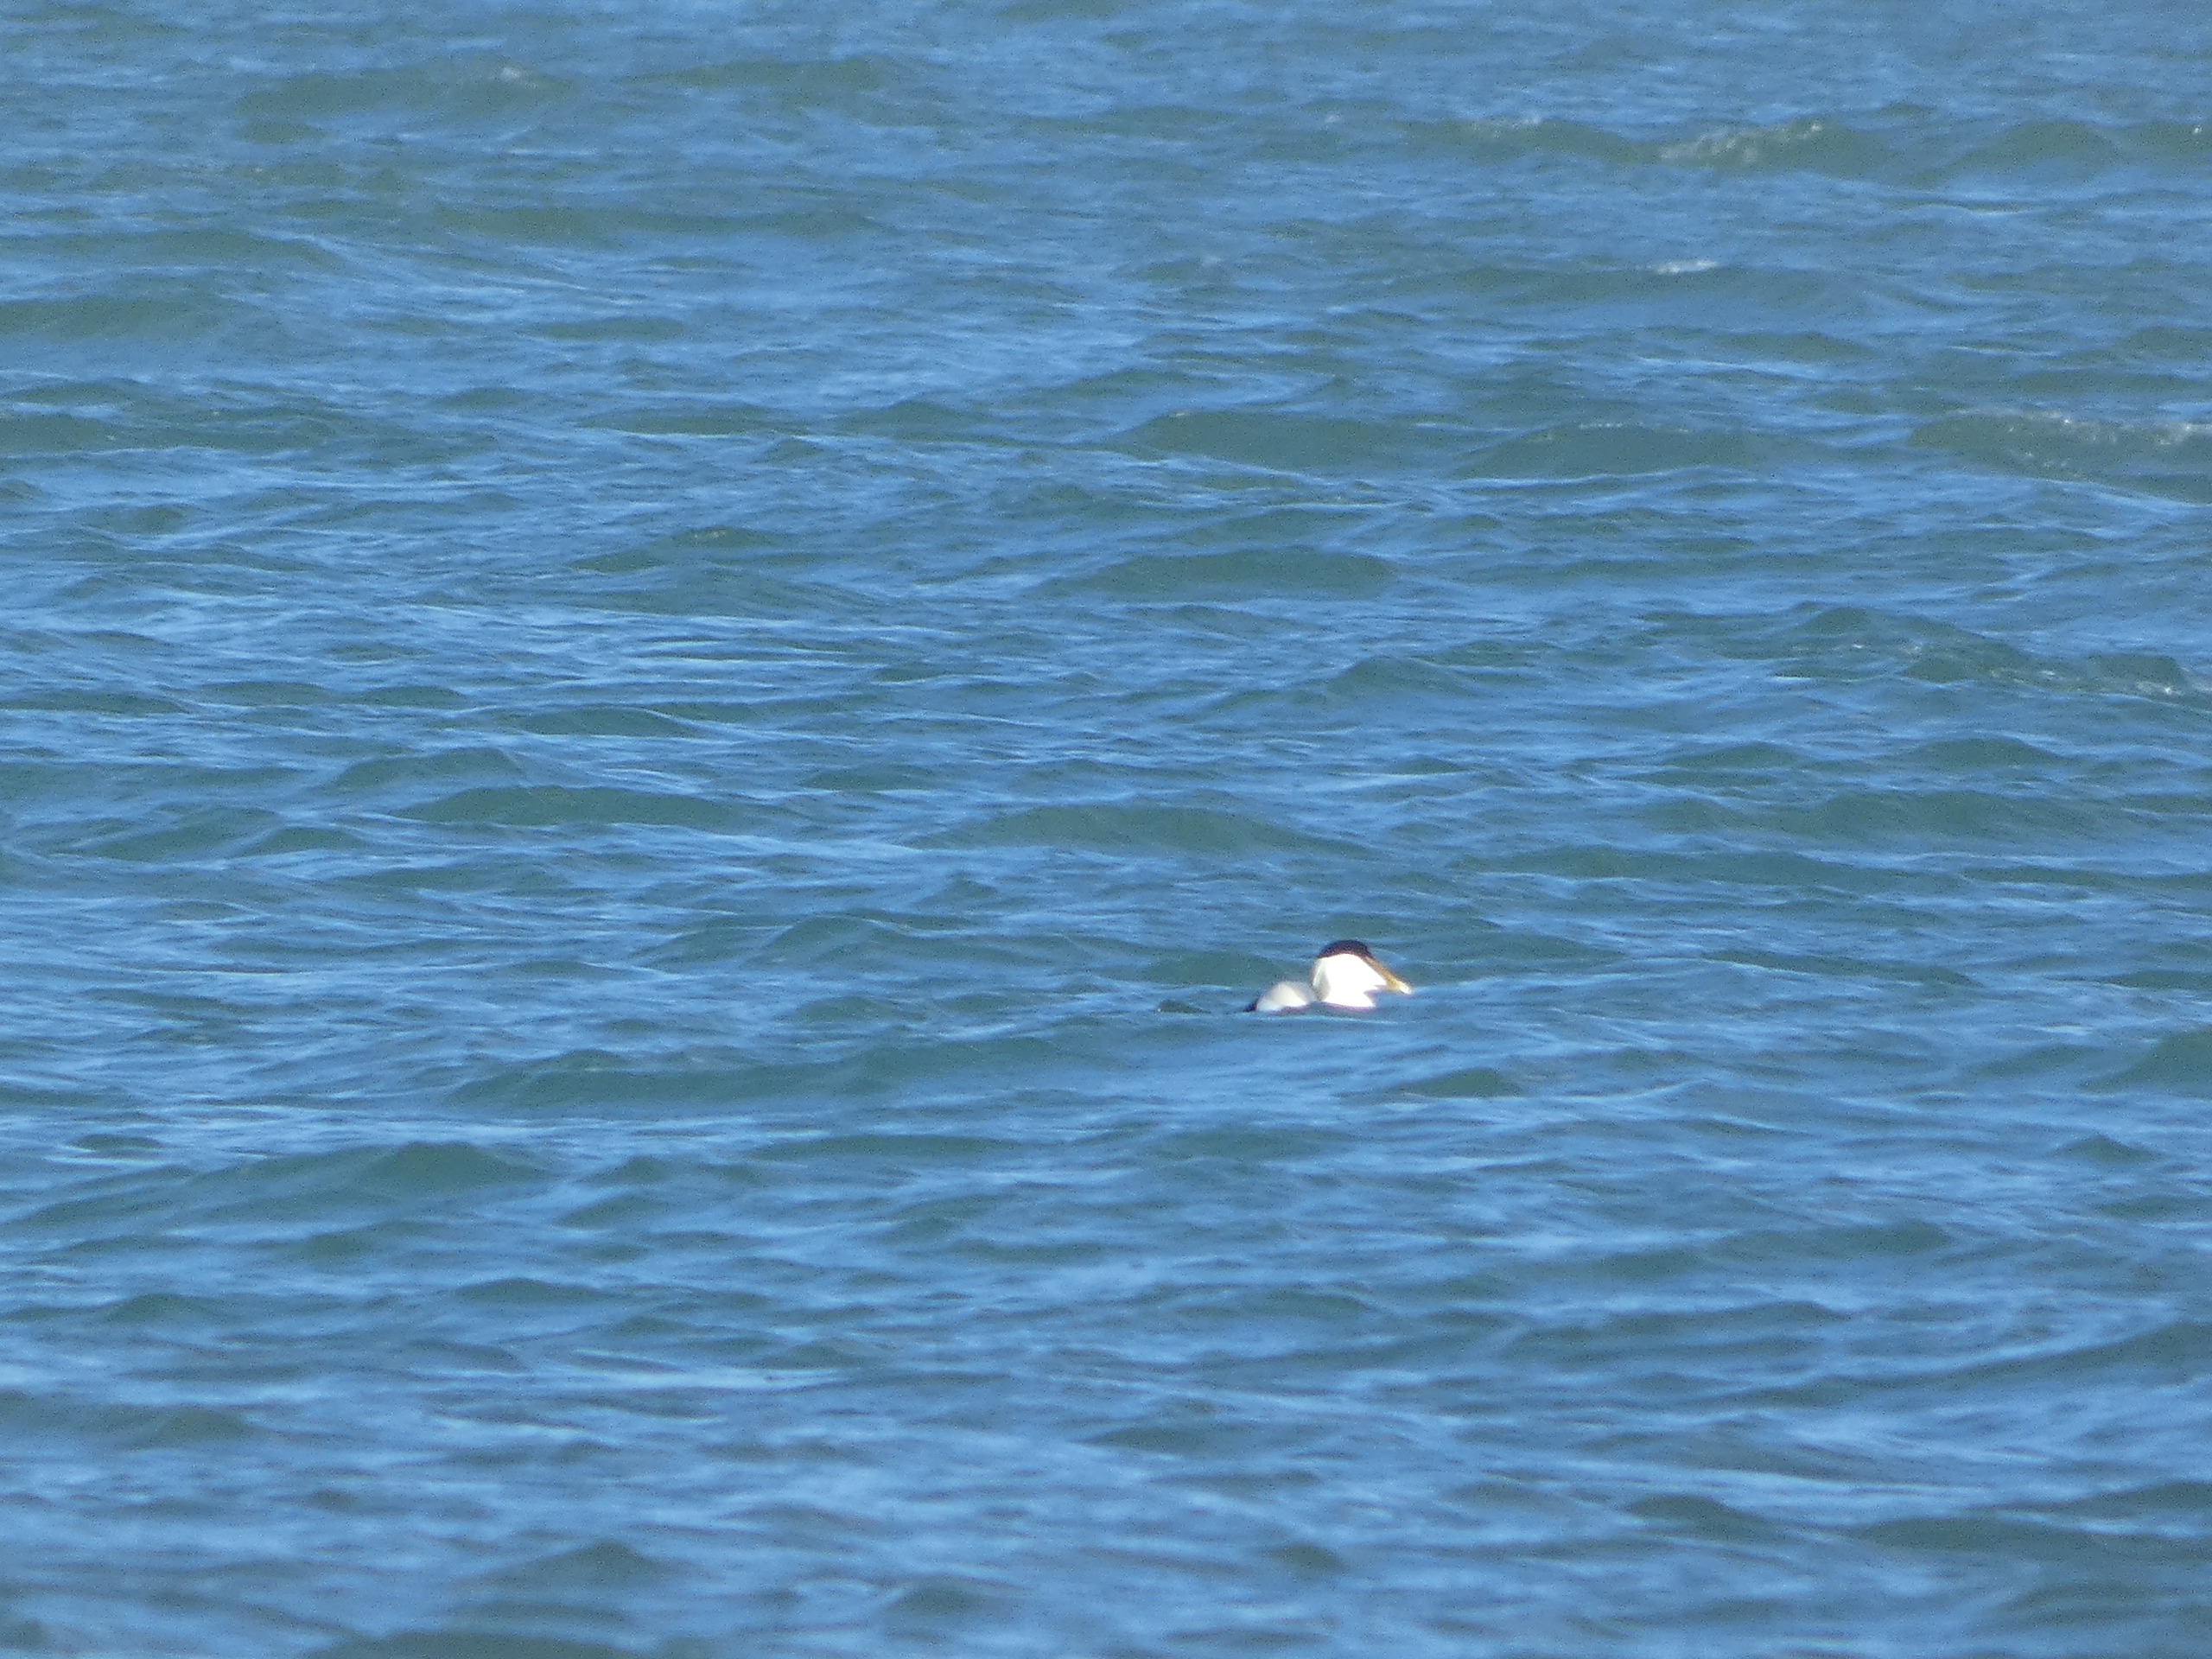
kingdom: Animalia
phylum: Chordata
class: Aves
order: Anseriformes
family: Anatidae
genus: Somateria
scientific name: Somateria mollissima
